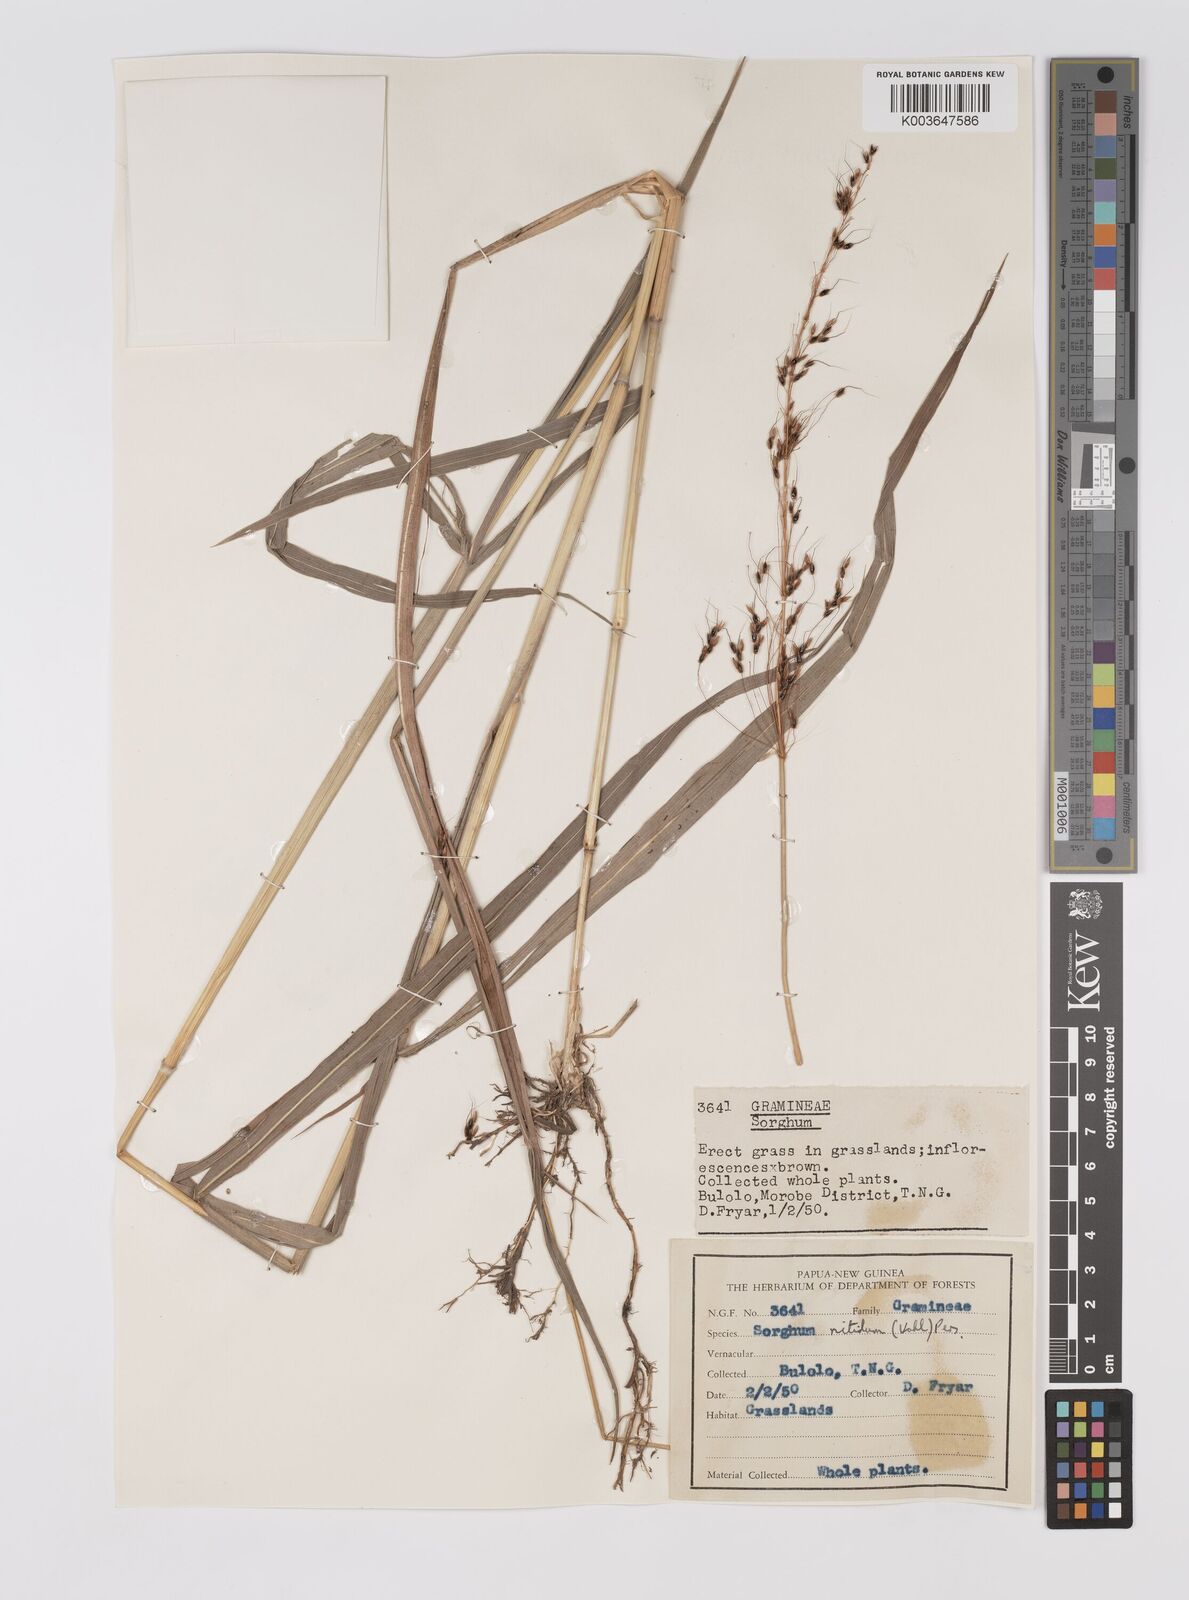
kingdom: Plantae
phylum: Tracheophyta
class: Liliopsida
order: Poales
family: Poaceae
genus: Sorghum
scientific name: Sorghum nitidum
